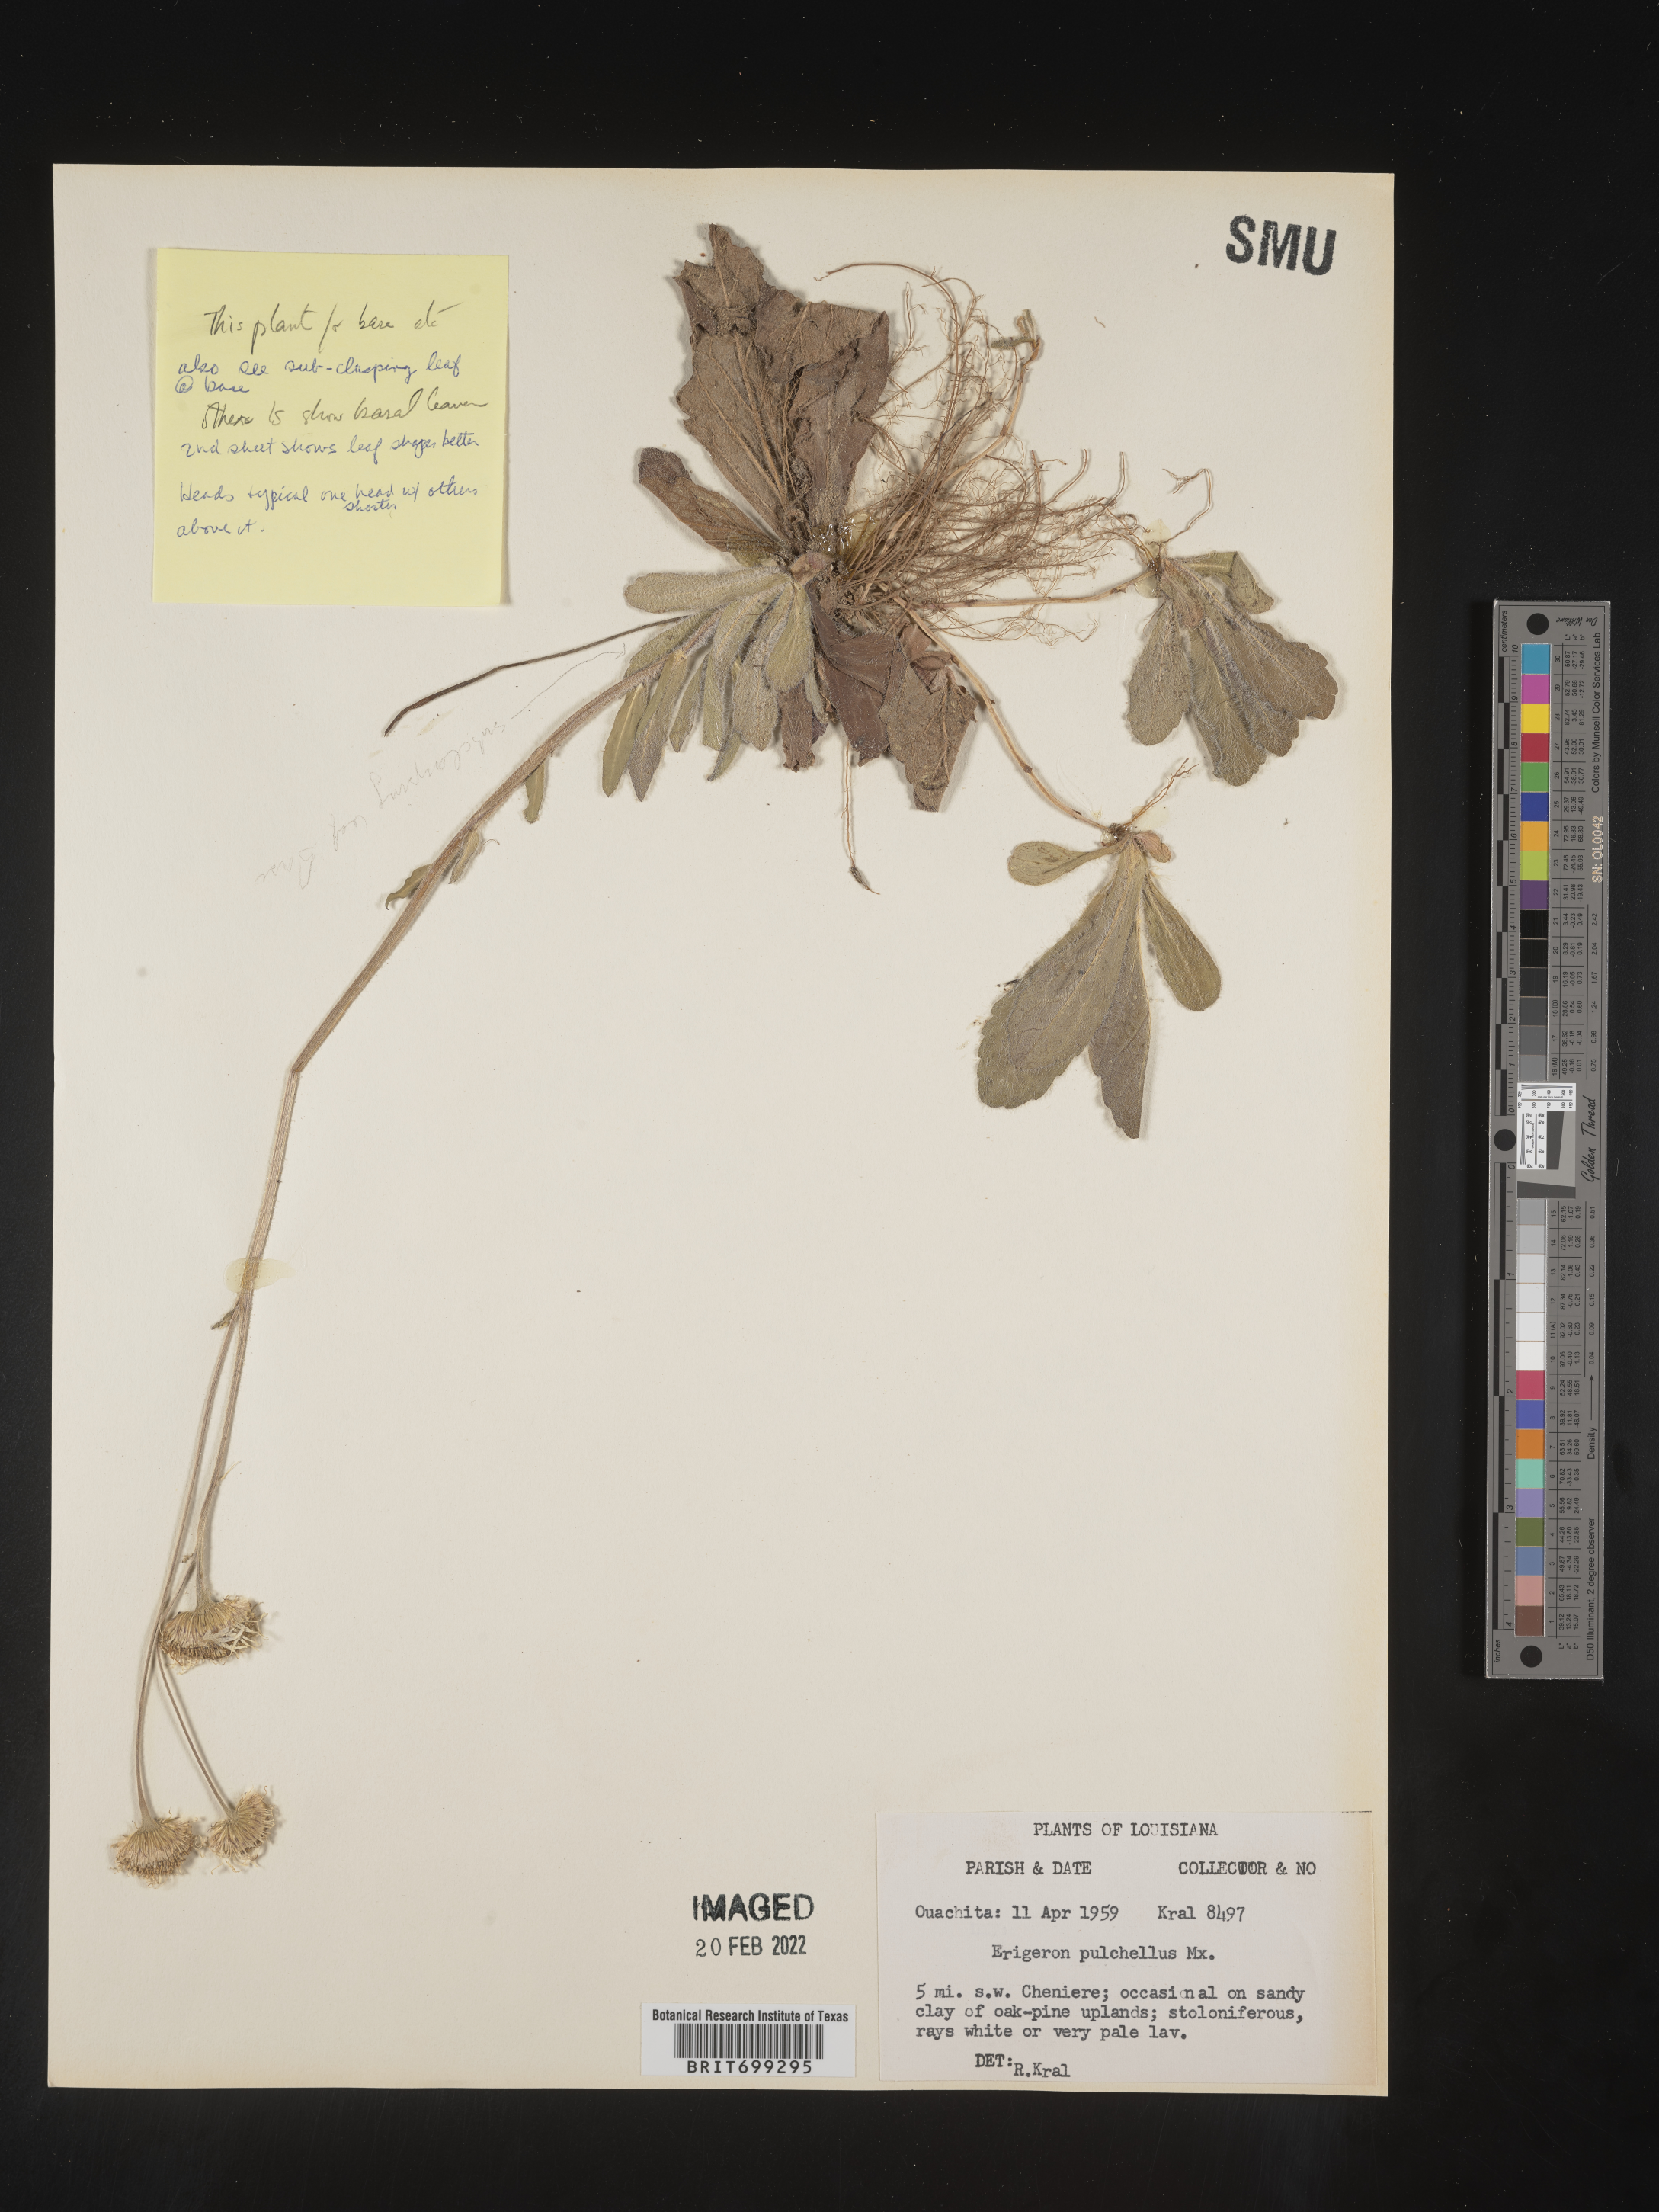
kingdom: Plantae
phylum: Tracheophyta
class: Magnoliopsida
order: Asterales
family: Asteraceae
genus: Erigeron
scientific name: Erigeron pulchellus
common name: Hairy fleabane
